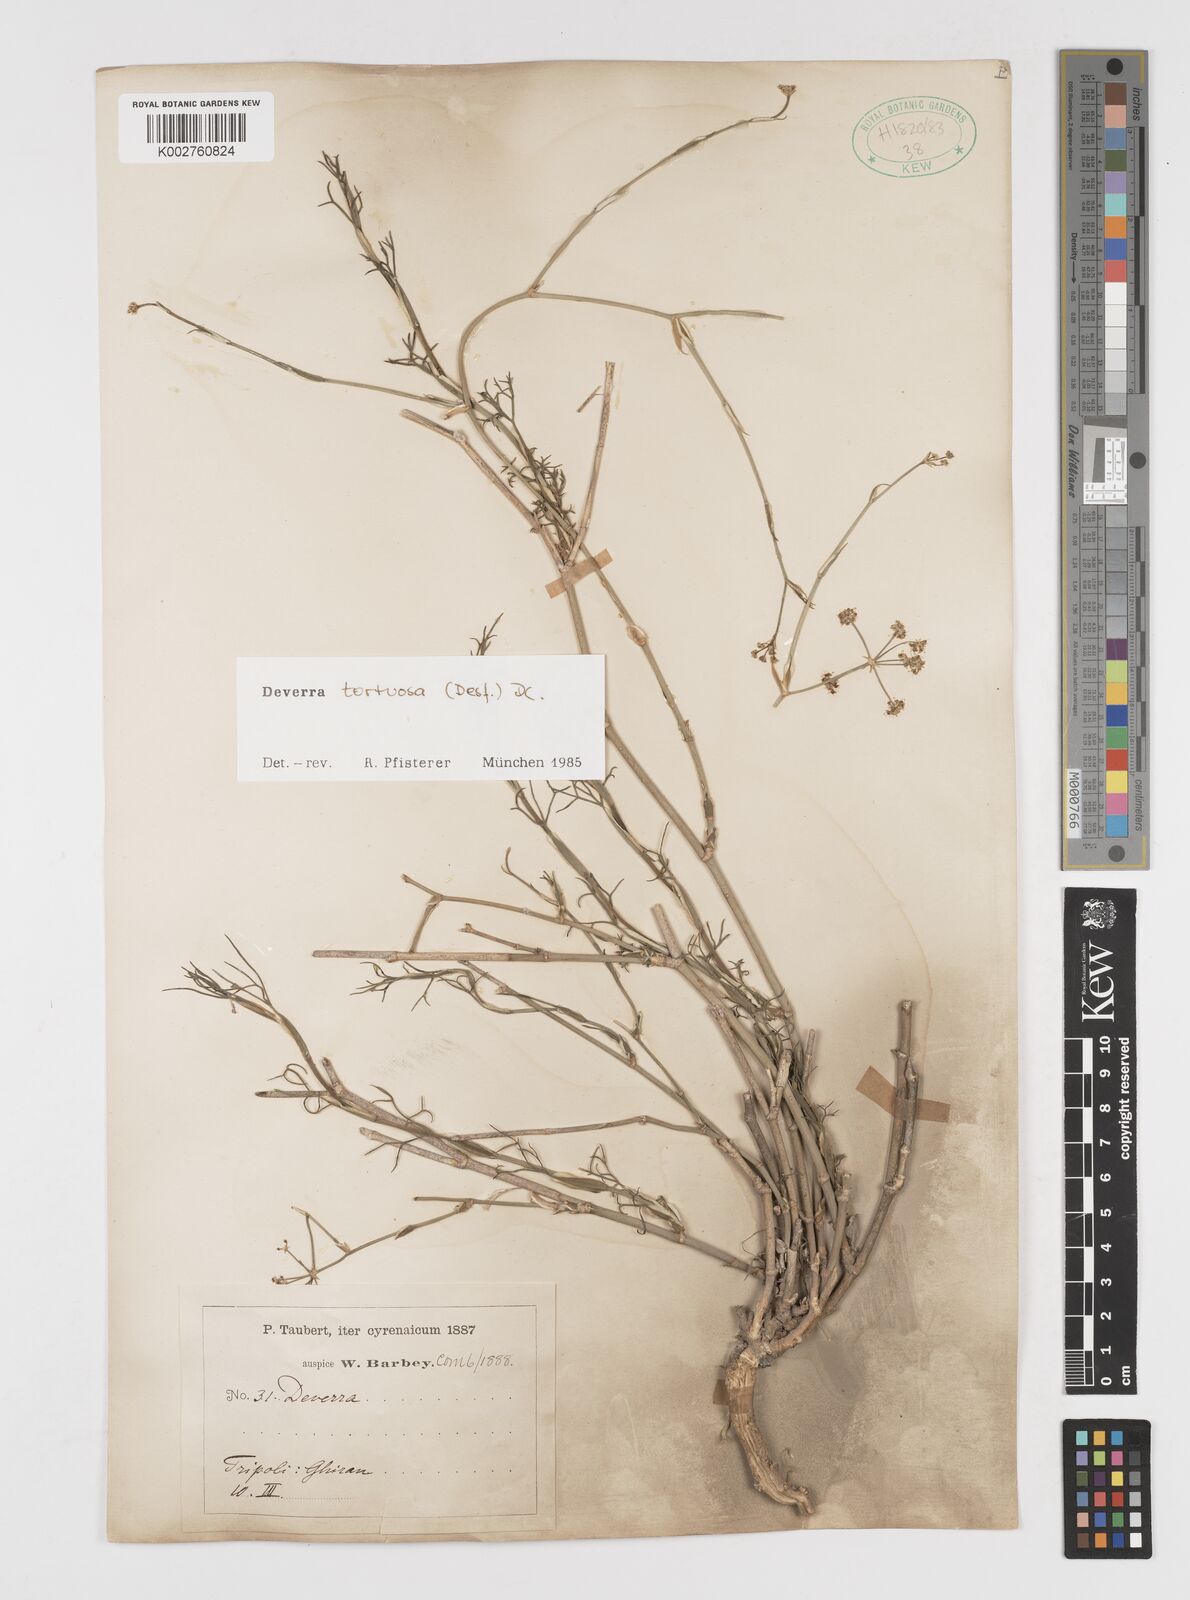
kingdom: Plantae
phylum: Tracheophyta
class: Magnoliopsida
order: Apiales
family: Apiaceae
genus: Deverra
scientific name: Deverra tortuosa
